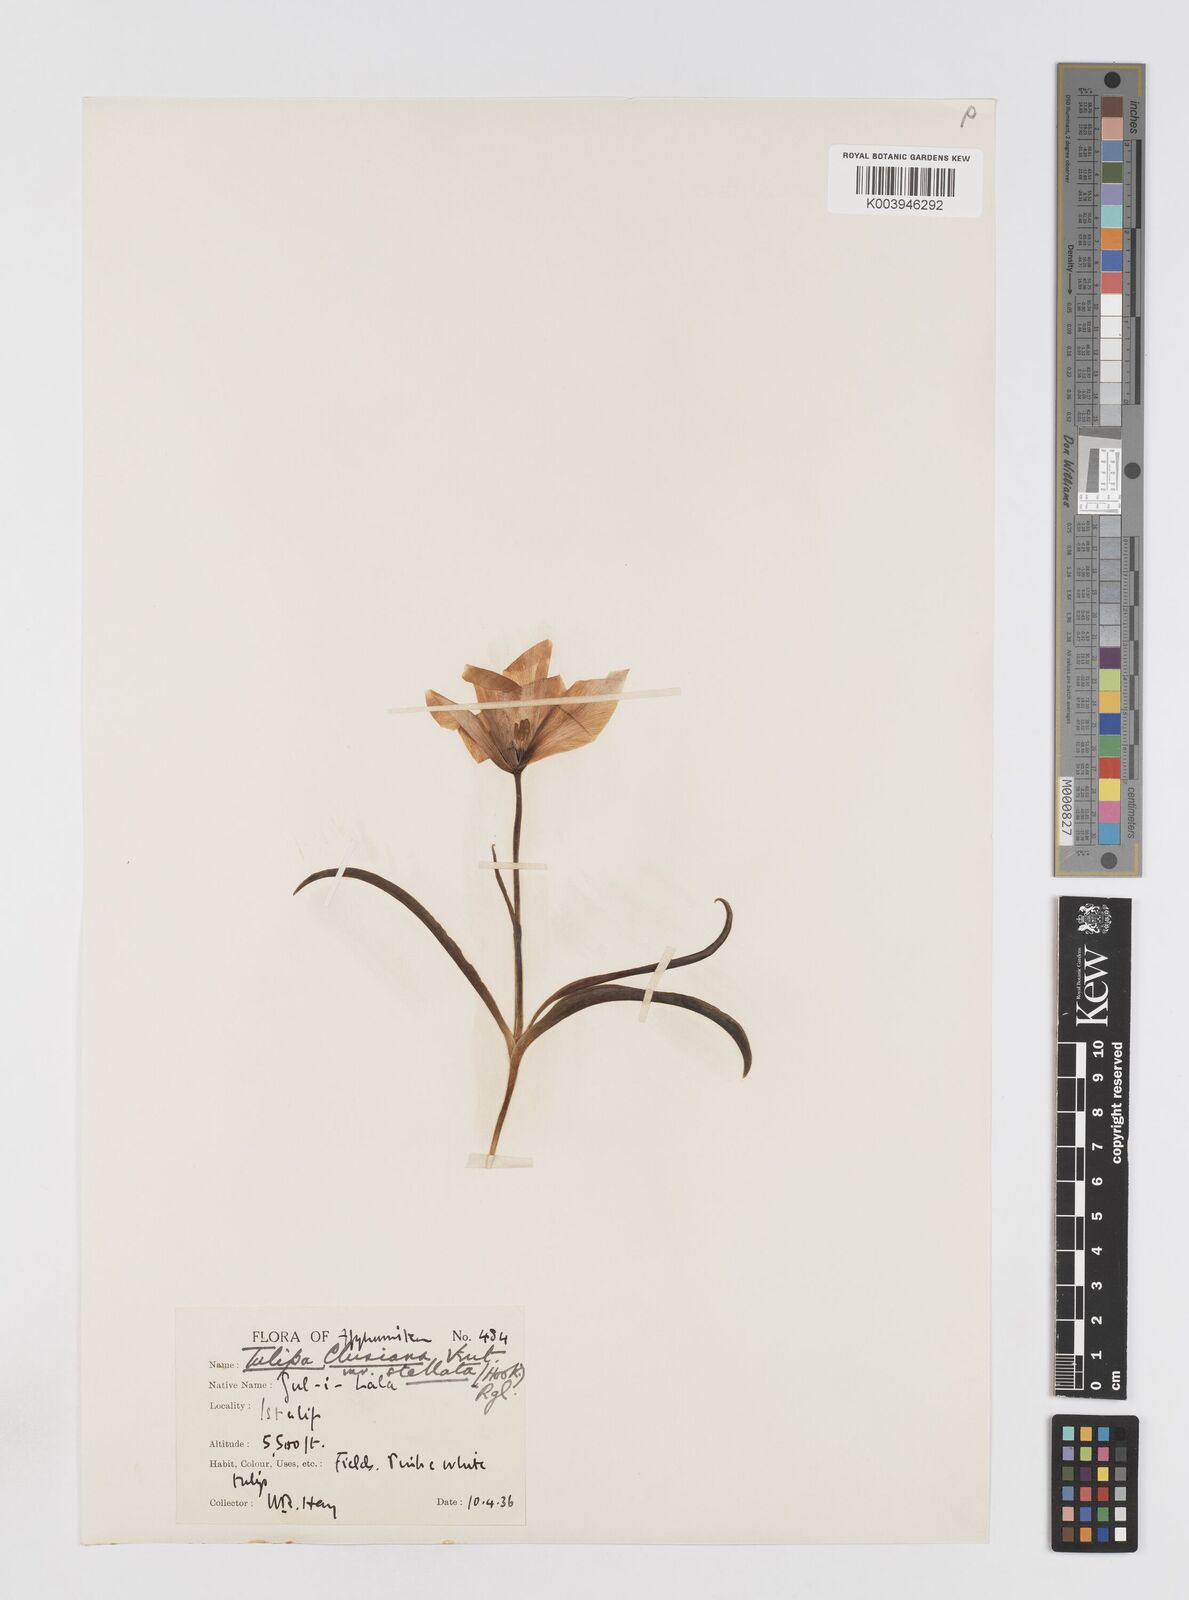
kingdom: Plantae
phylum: Tracheophyta
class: Liliopsida
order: Liliales
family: Liliaceae
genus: Tulipa
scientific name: Tulipa clusiana
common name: Lady tulip
